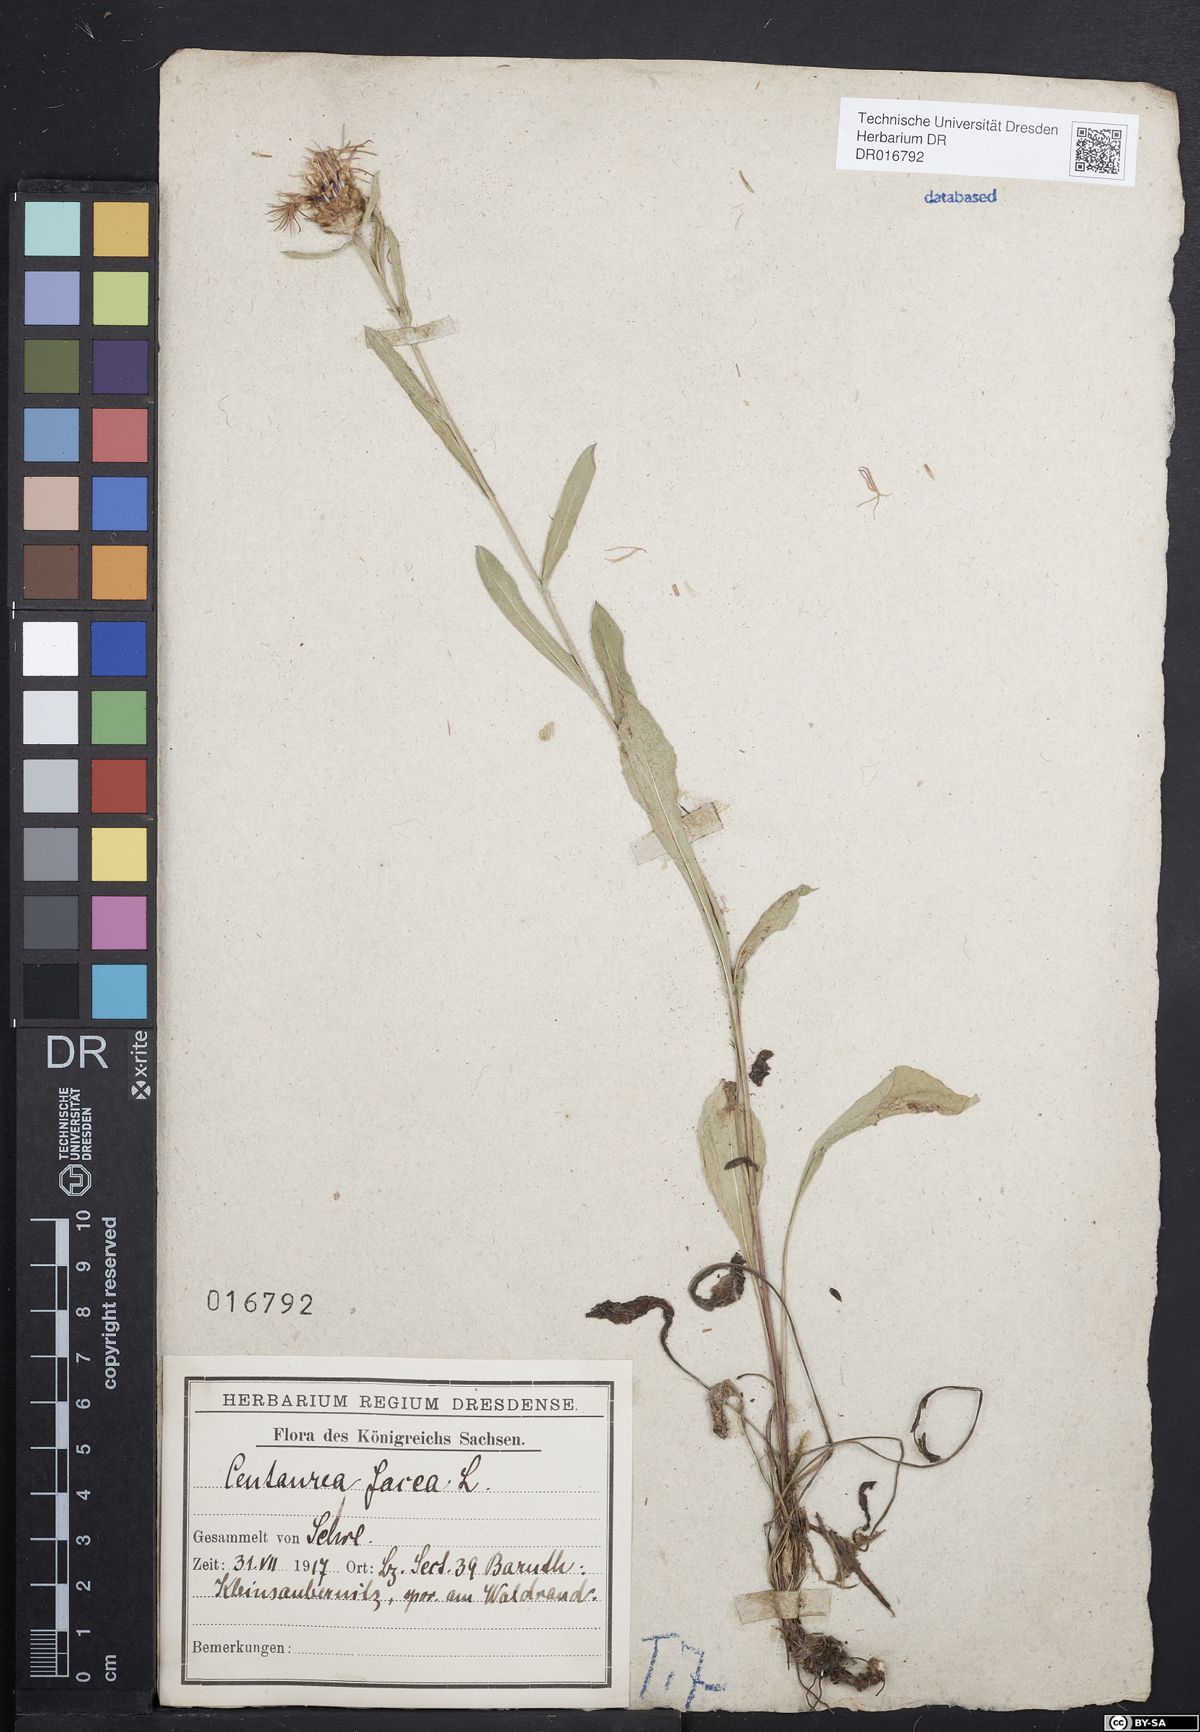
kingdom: Plantae
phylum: Tracheophyta
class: Magnoliopsida
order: Asterales
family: Asteraceae
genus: Centaurea
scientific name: Centaurea jacea
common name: Brown knapweed
